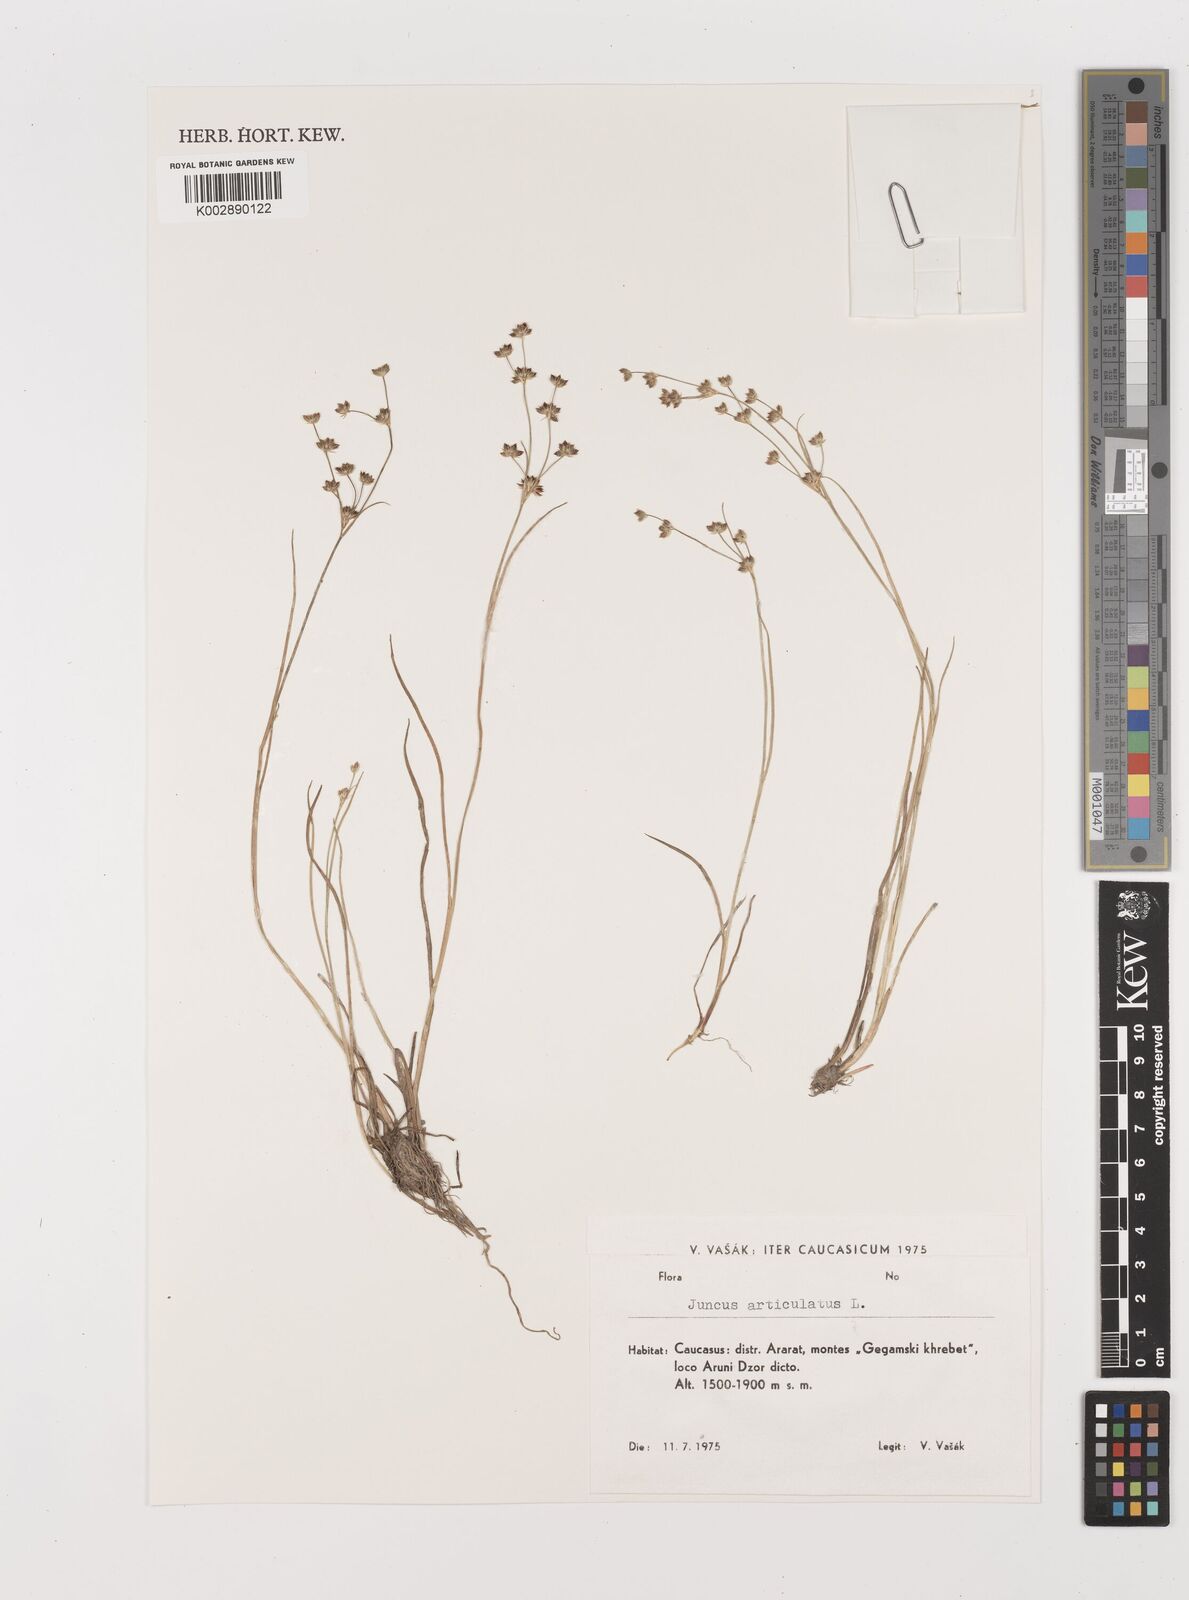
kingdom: Plantae
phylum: Tracheophyta
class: Liliopsida
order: Poales
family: Juncaceae
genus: Juncus
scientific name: Juncus articulatus
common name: Jointed rush
